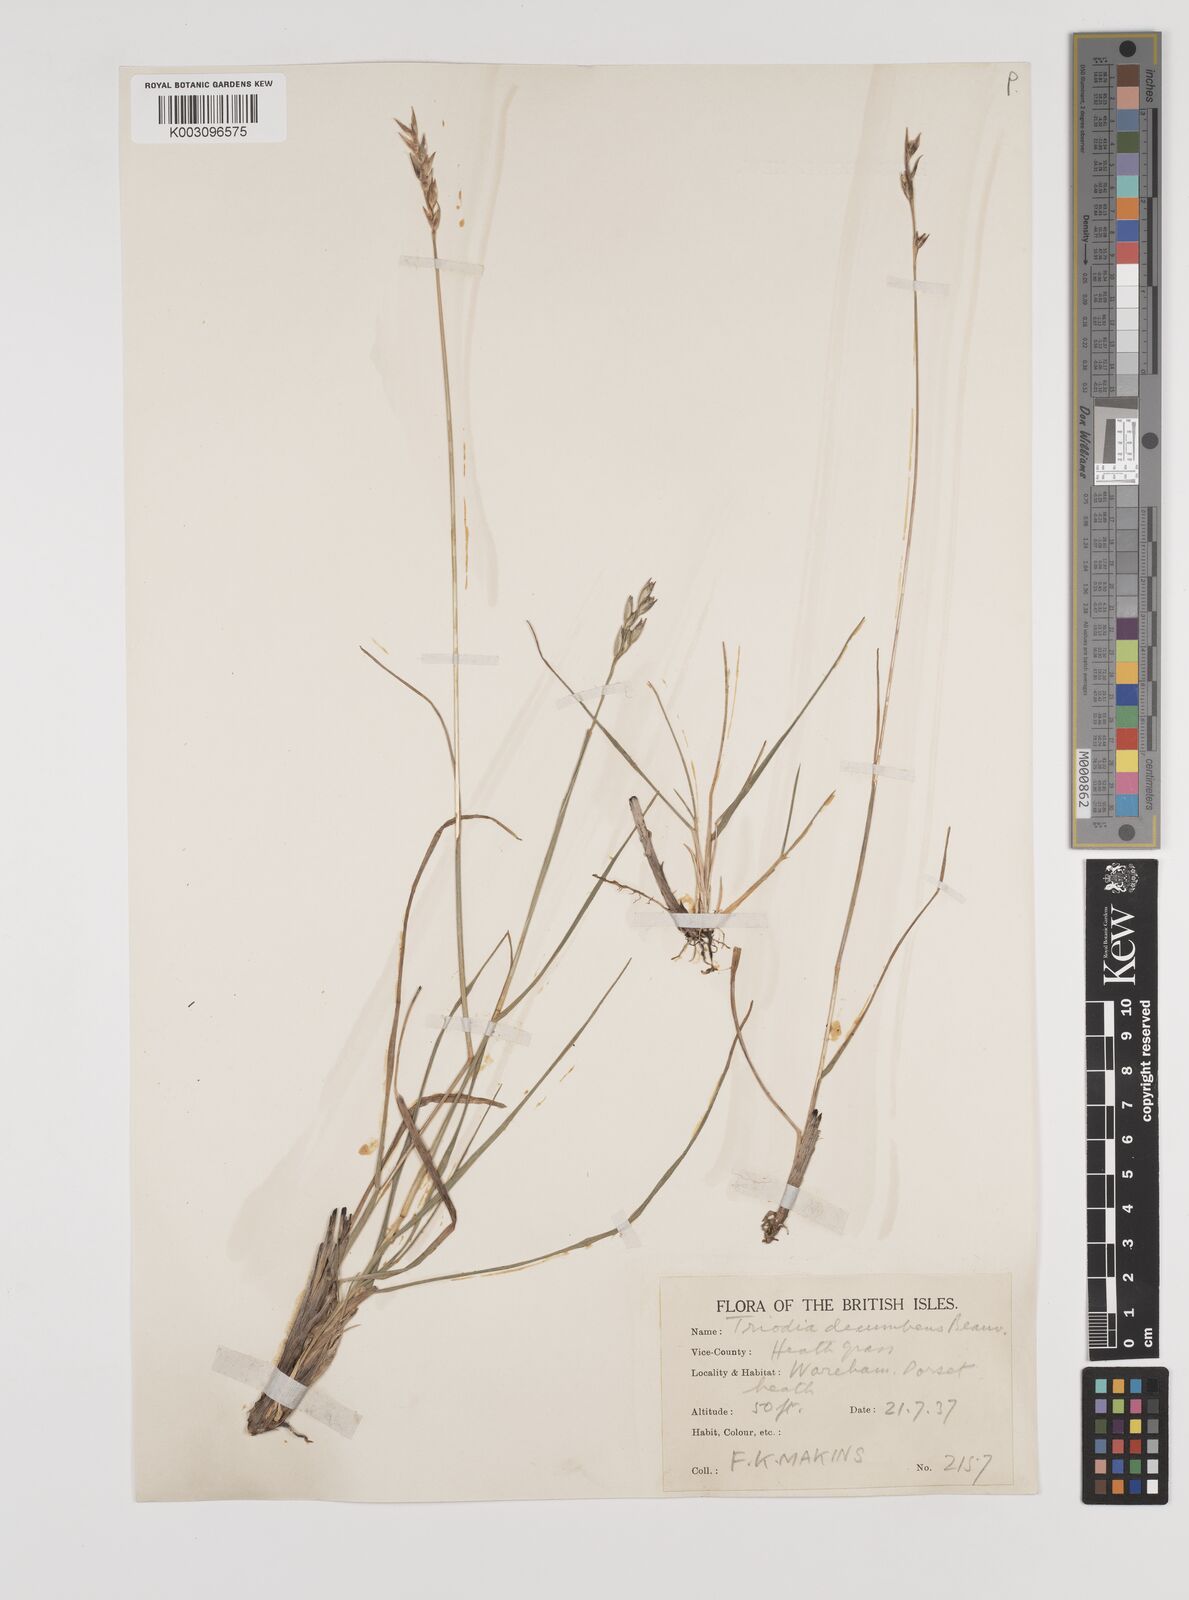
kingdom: Plantae
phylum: Tracheophyta
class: Liliopsida
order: Poales
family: Poaceae
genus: Danthonia
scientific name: Danthonia decumbens
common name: Common heathgrass
